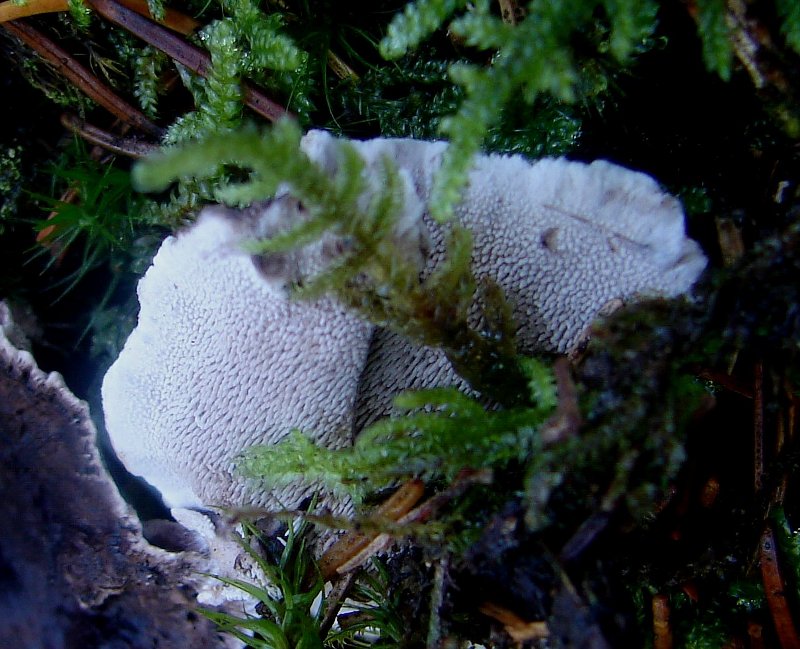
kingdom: Fungi
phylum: Basidiomycota
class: Agaricomycetes
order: Thelephorales
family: Thelephoraceae
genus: Phellodon
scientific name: Phellodon tomentosus
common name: vellugtende duftpigsvamp
